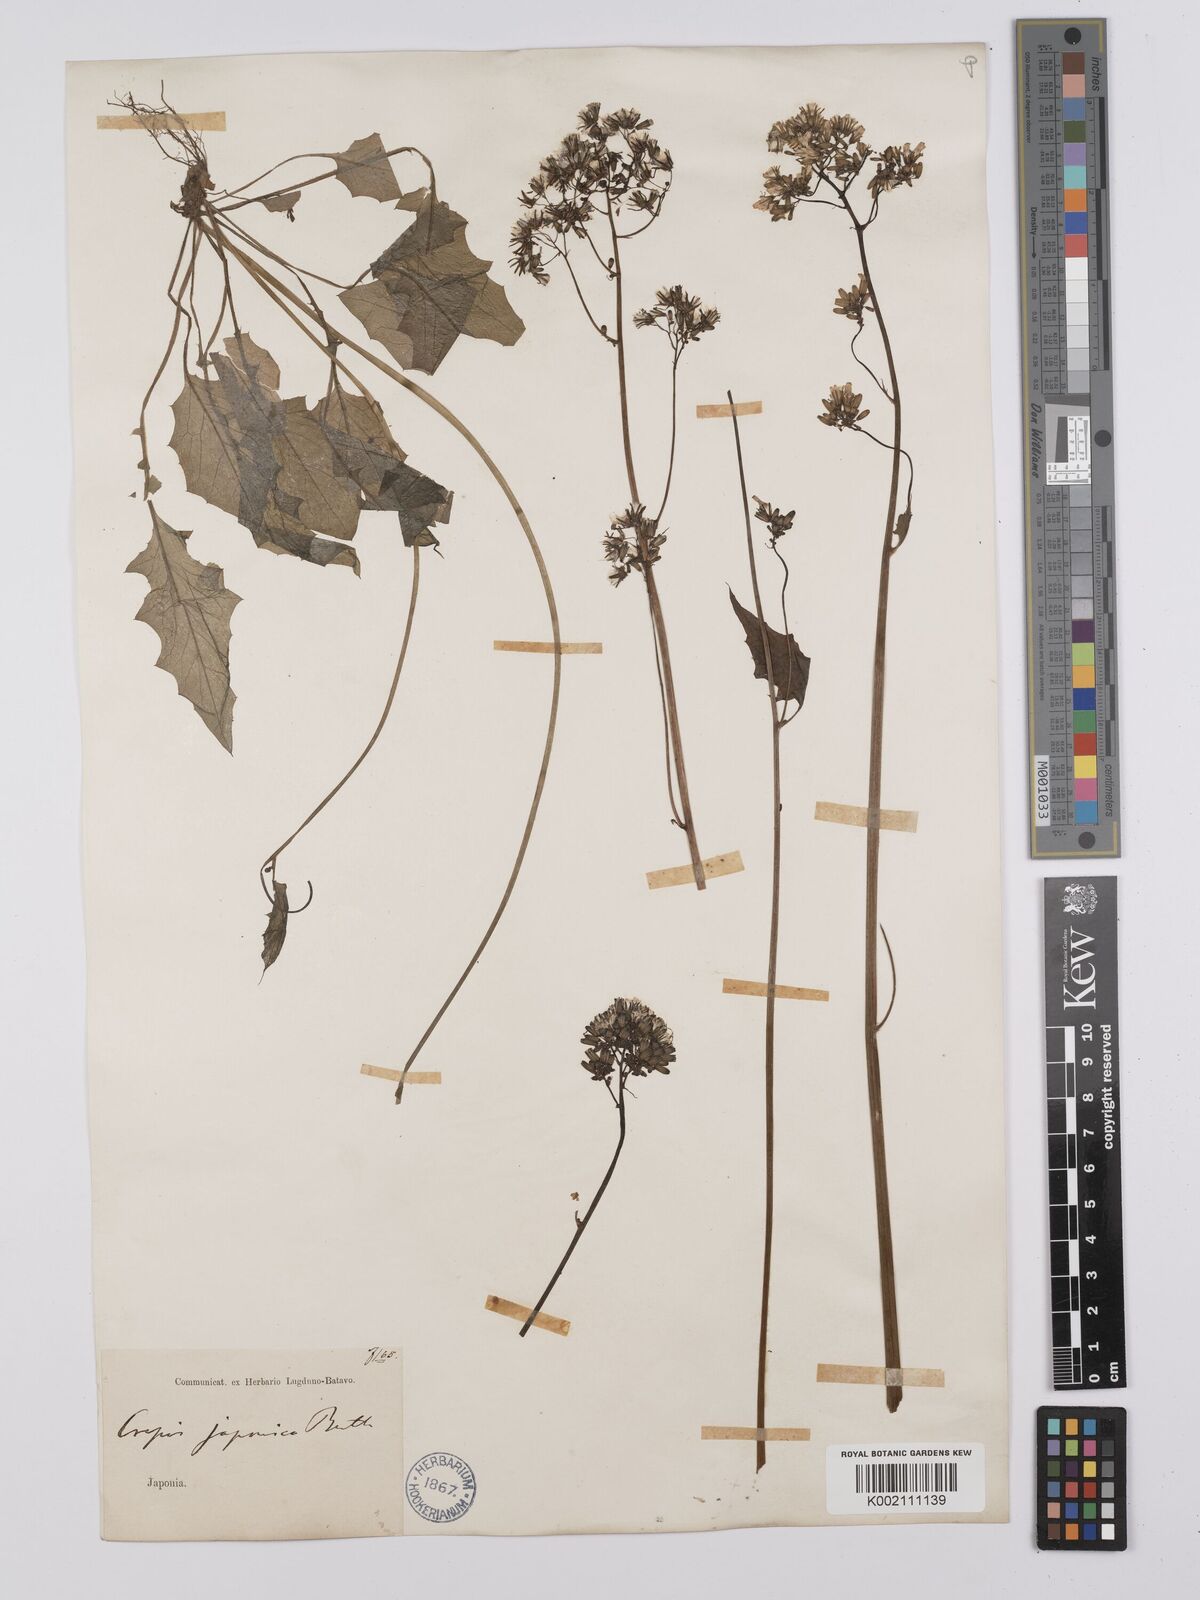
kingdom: Plantae
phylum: Tracheophyta
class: Magnoliopsida
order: Asterales
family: Asteraceae
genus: Youngia
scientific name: Youngia japonica
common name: Oriental false hawksbeard
